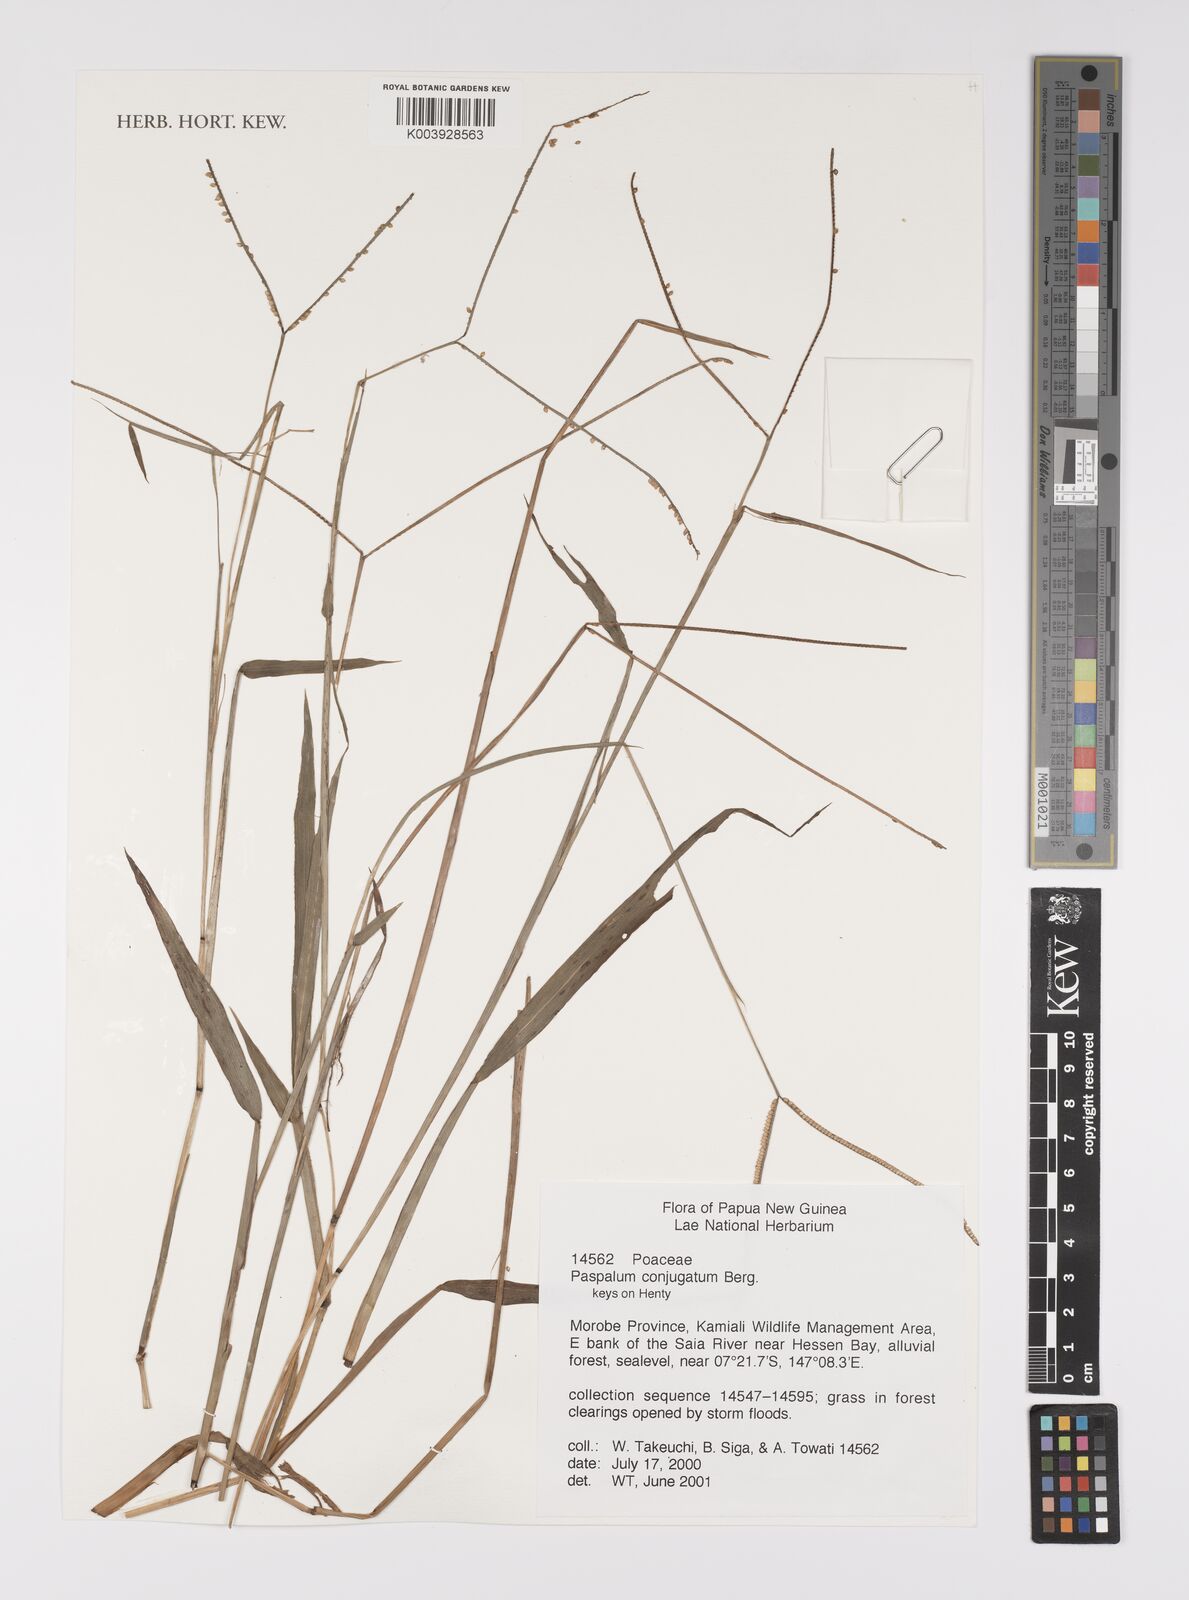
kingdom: Plantae
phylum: Tracheophyta
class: Liliopsida
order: Poales
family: Poaceae
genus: Paspalum
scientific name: Paspalum conjugatum
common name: Hilograss
